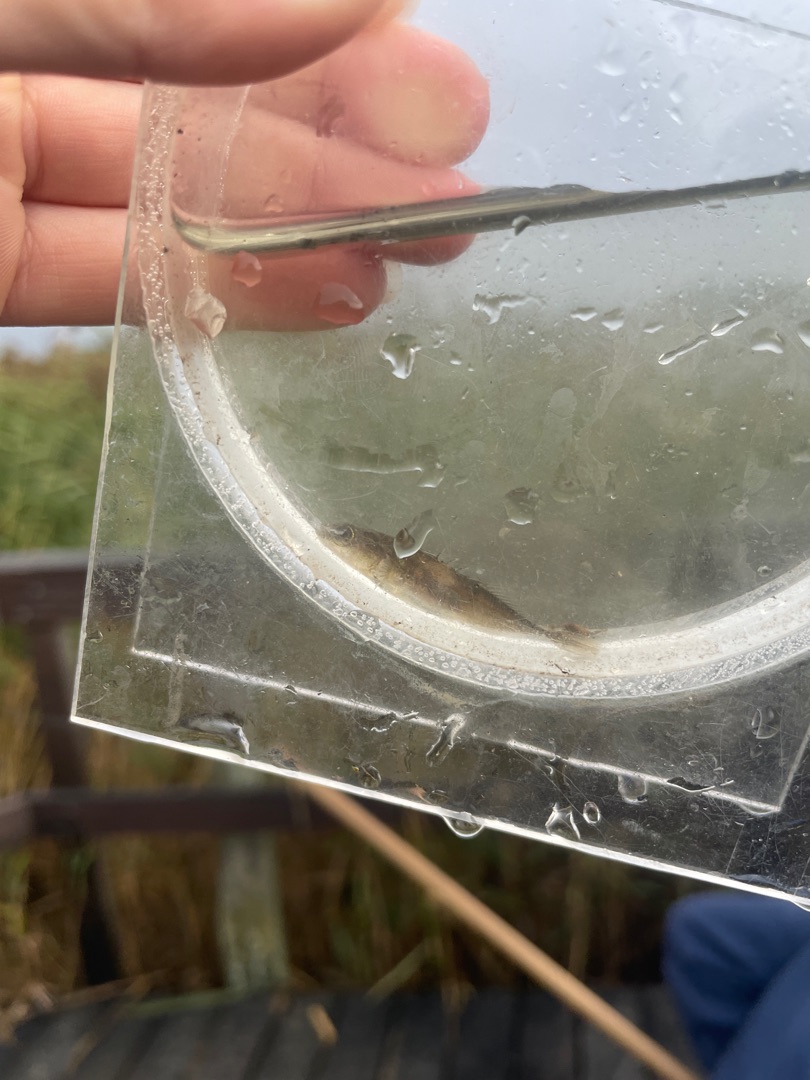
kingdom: Animalia
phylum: Chordata
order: Gasterosteiformes
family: Gasterosteidae
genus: Pungitius
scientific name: Pungitius pungitius
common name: Nipigget hundestejle
